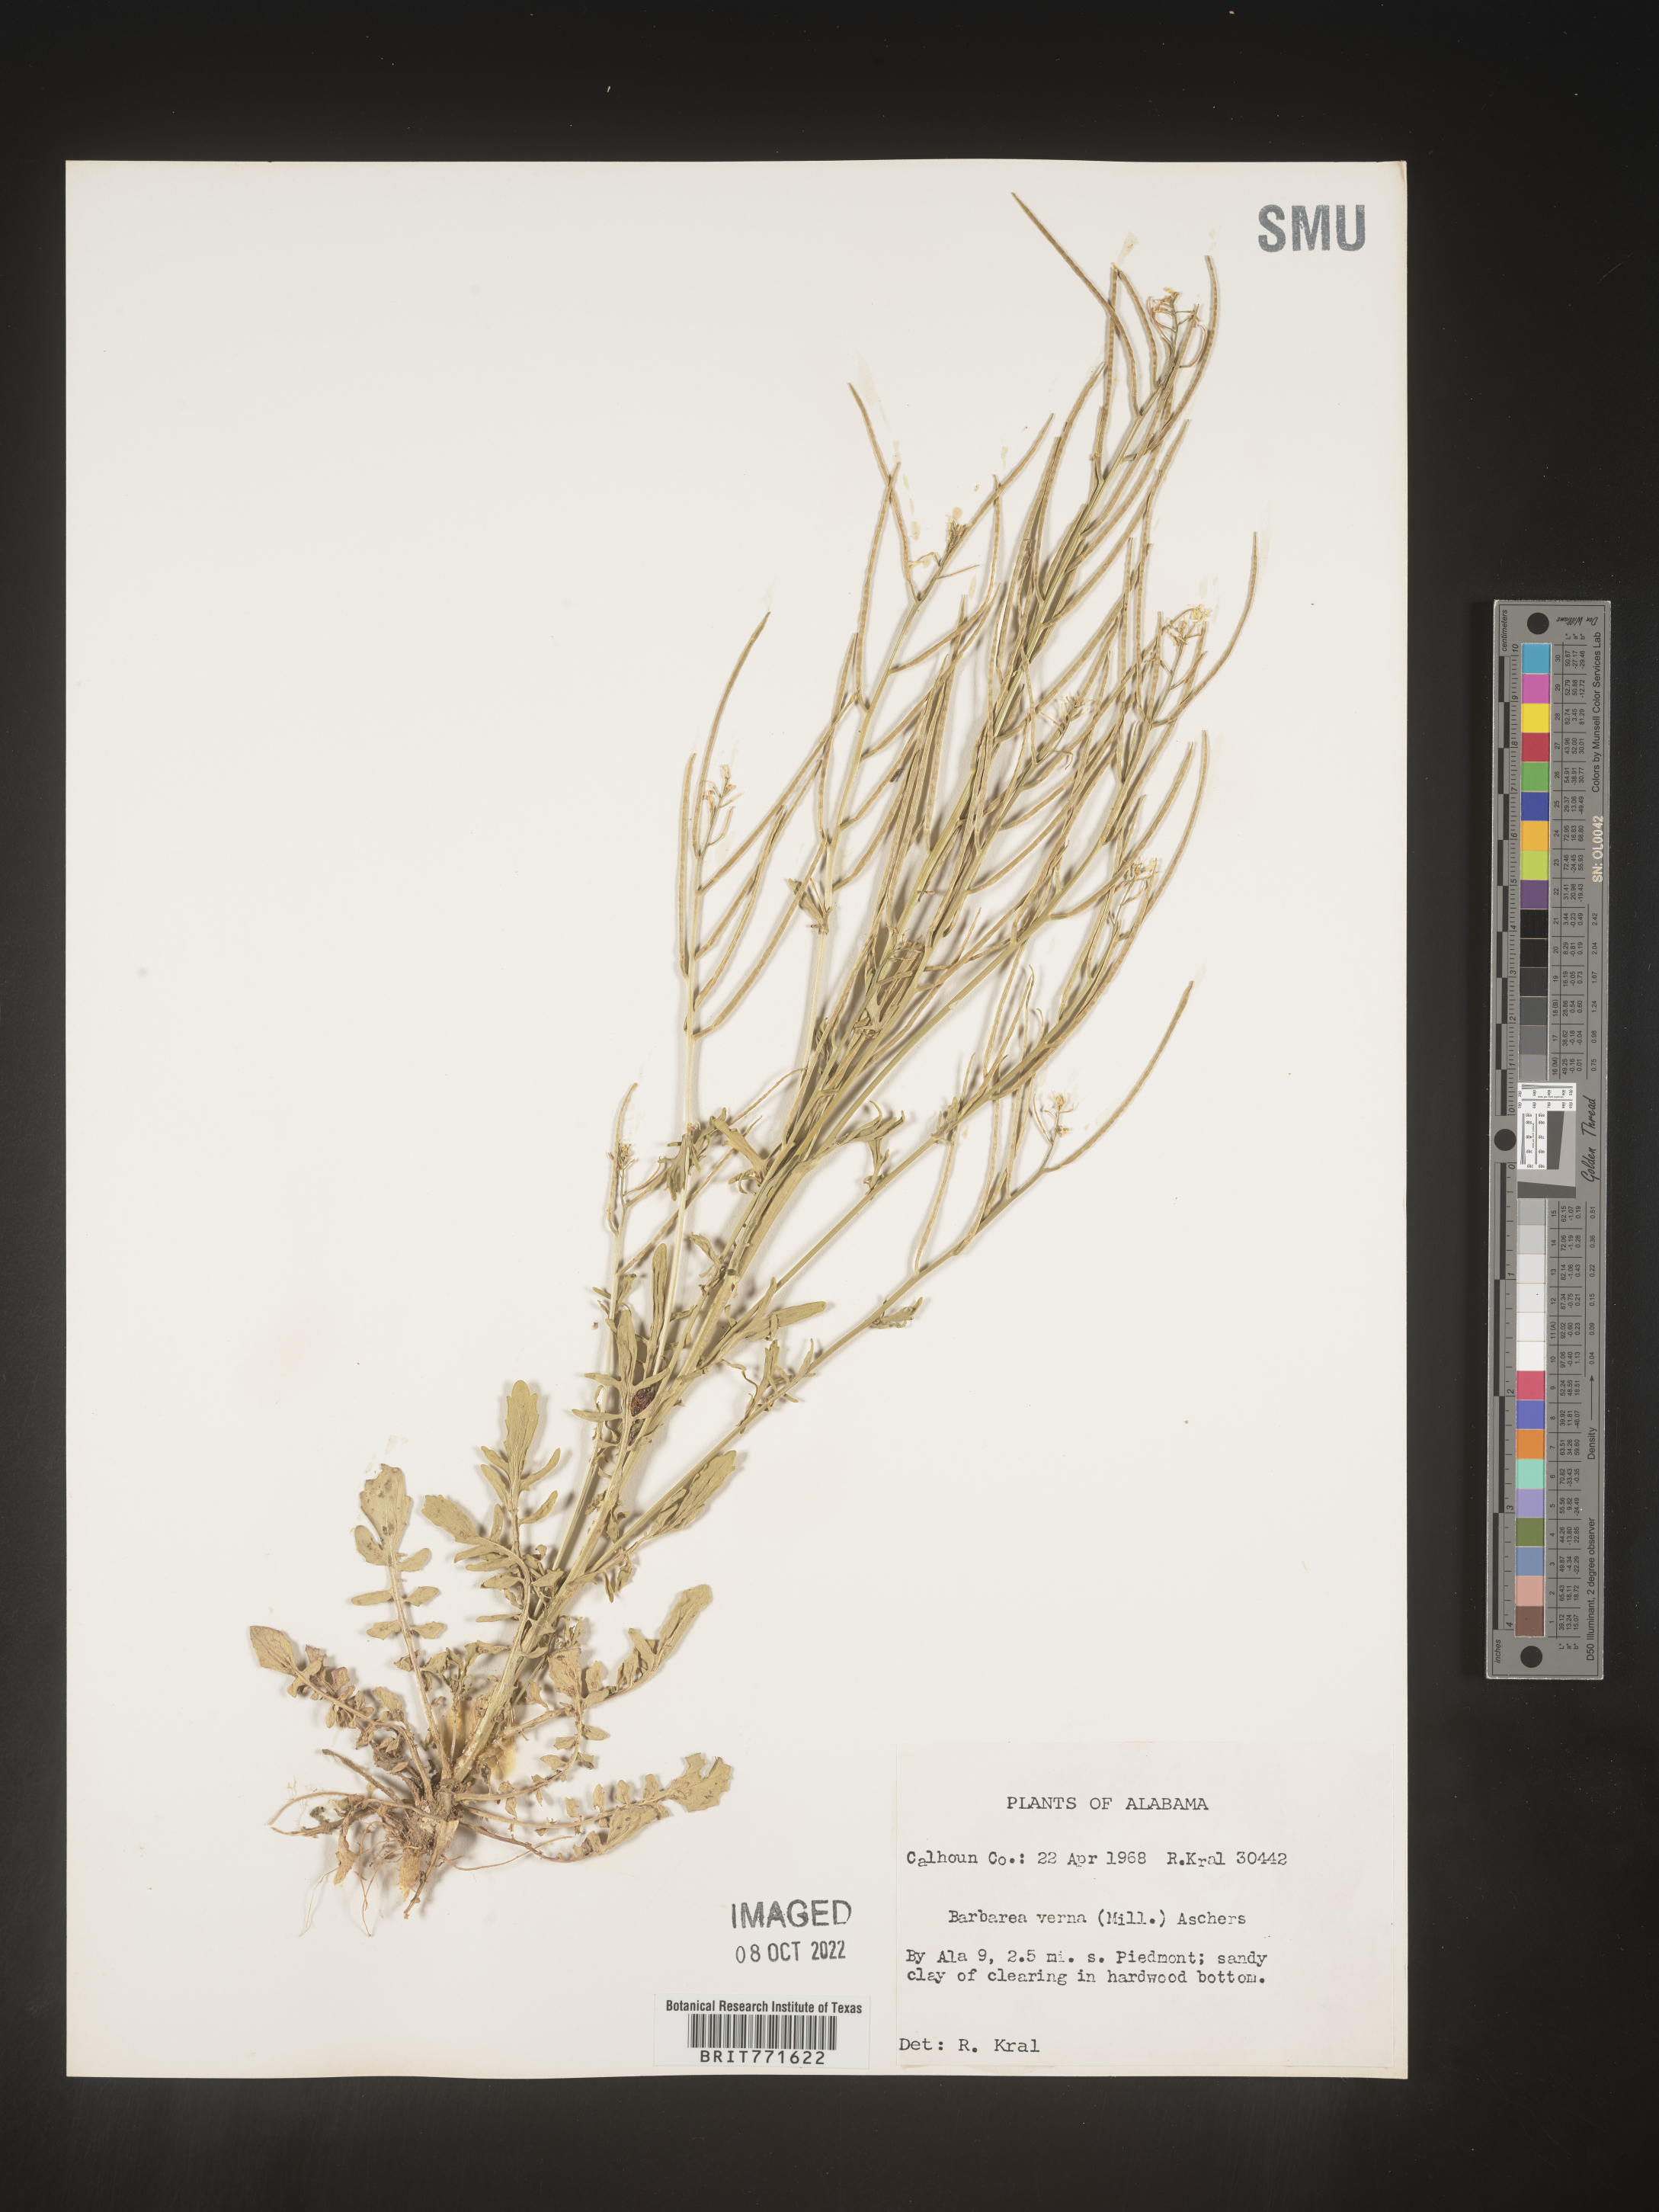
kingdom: Plantae
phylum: Tracheophyta
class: Magnoliopsida
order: Brassicales
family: Brassicaceae
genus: Barbarea
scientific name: Barbarea verna
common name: American cress
